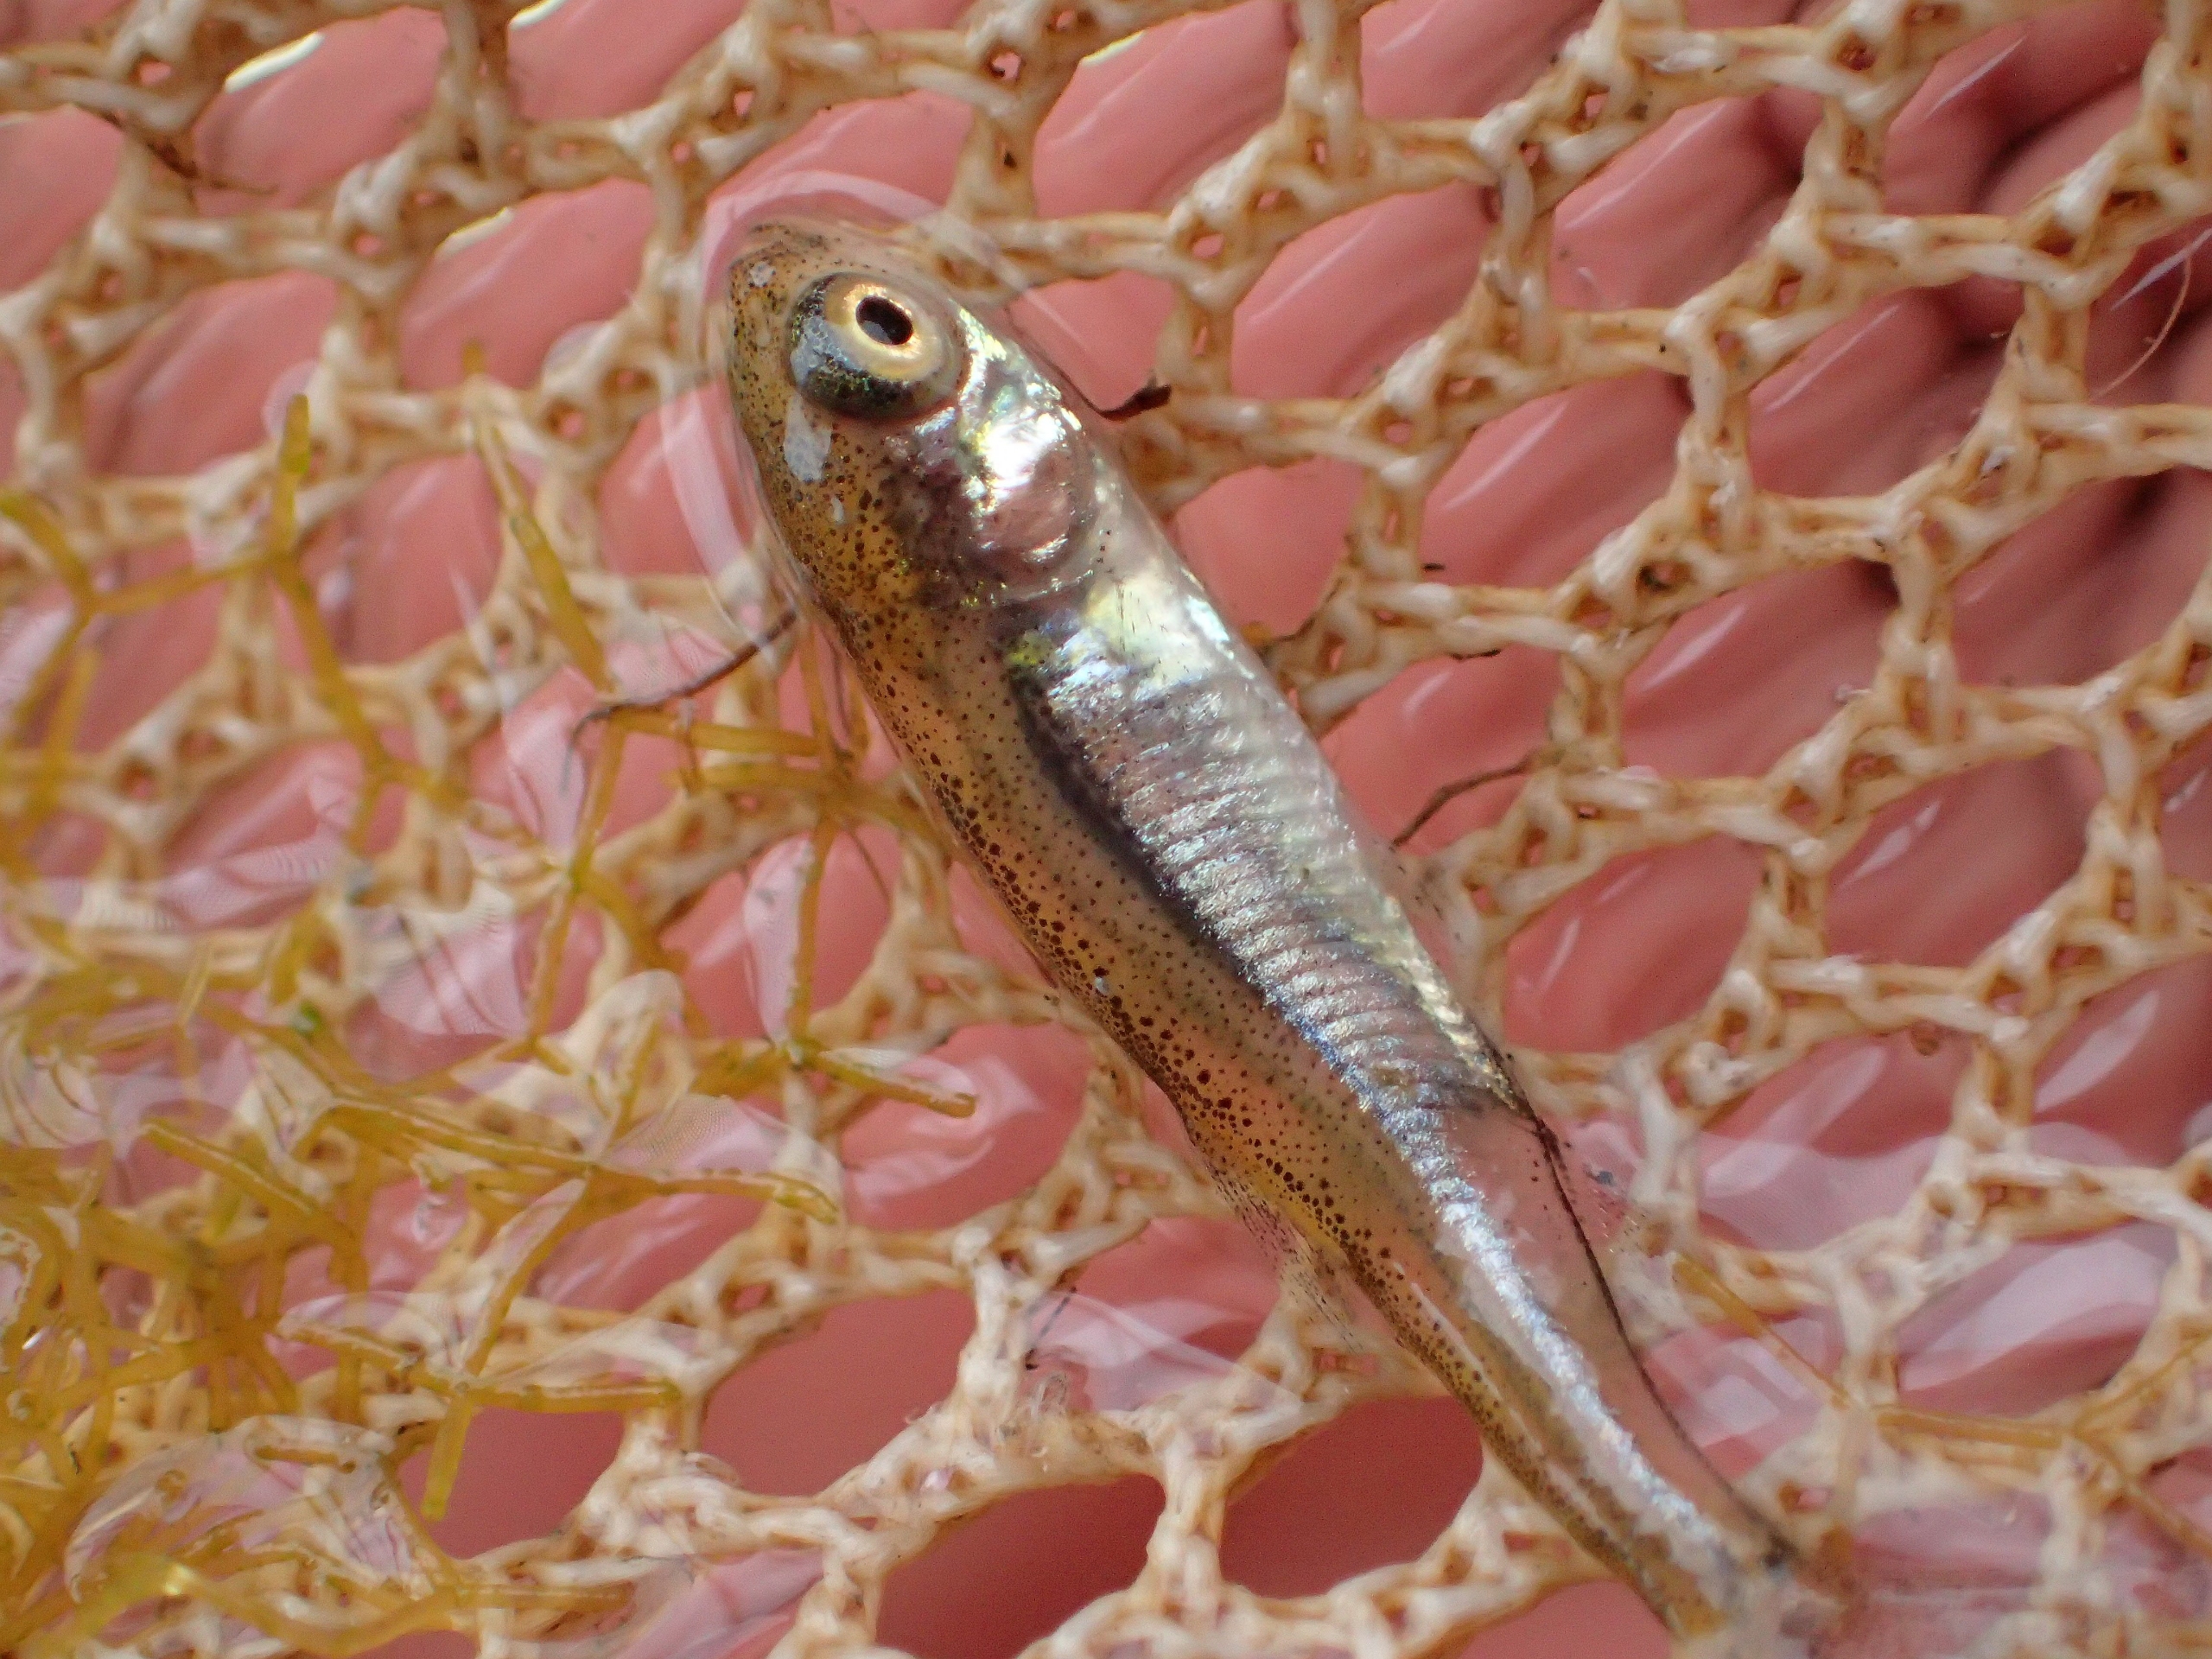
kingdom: Animalia
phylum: Chordata
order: Cypriniformes
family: Cyprinidae
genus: Leucaspius
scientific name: Leucaspius delineatus
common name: Regnløje
